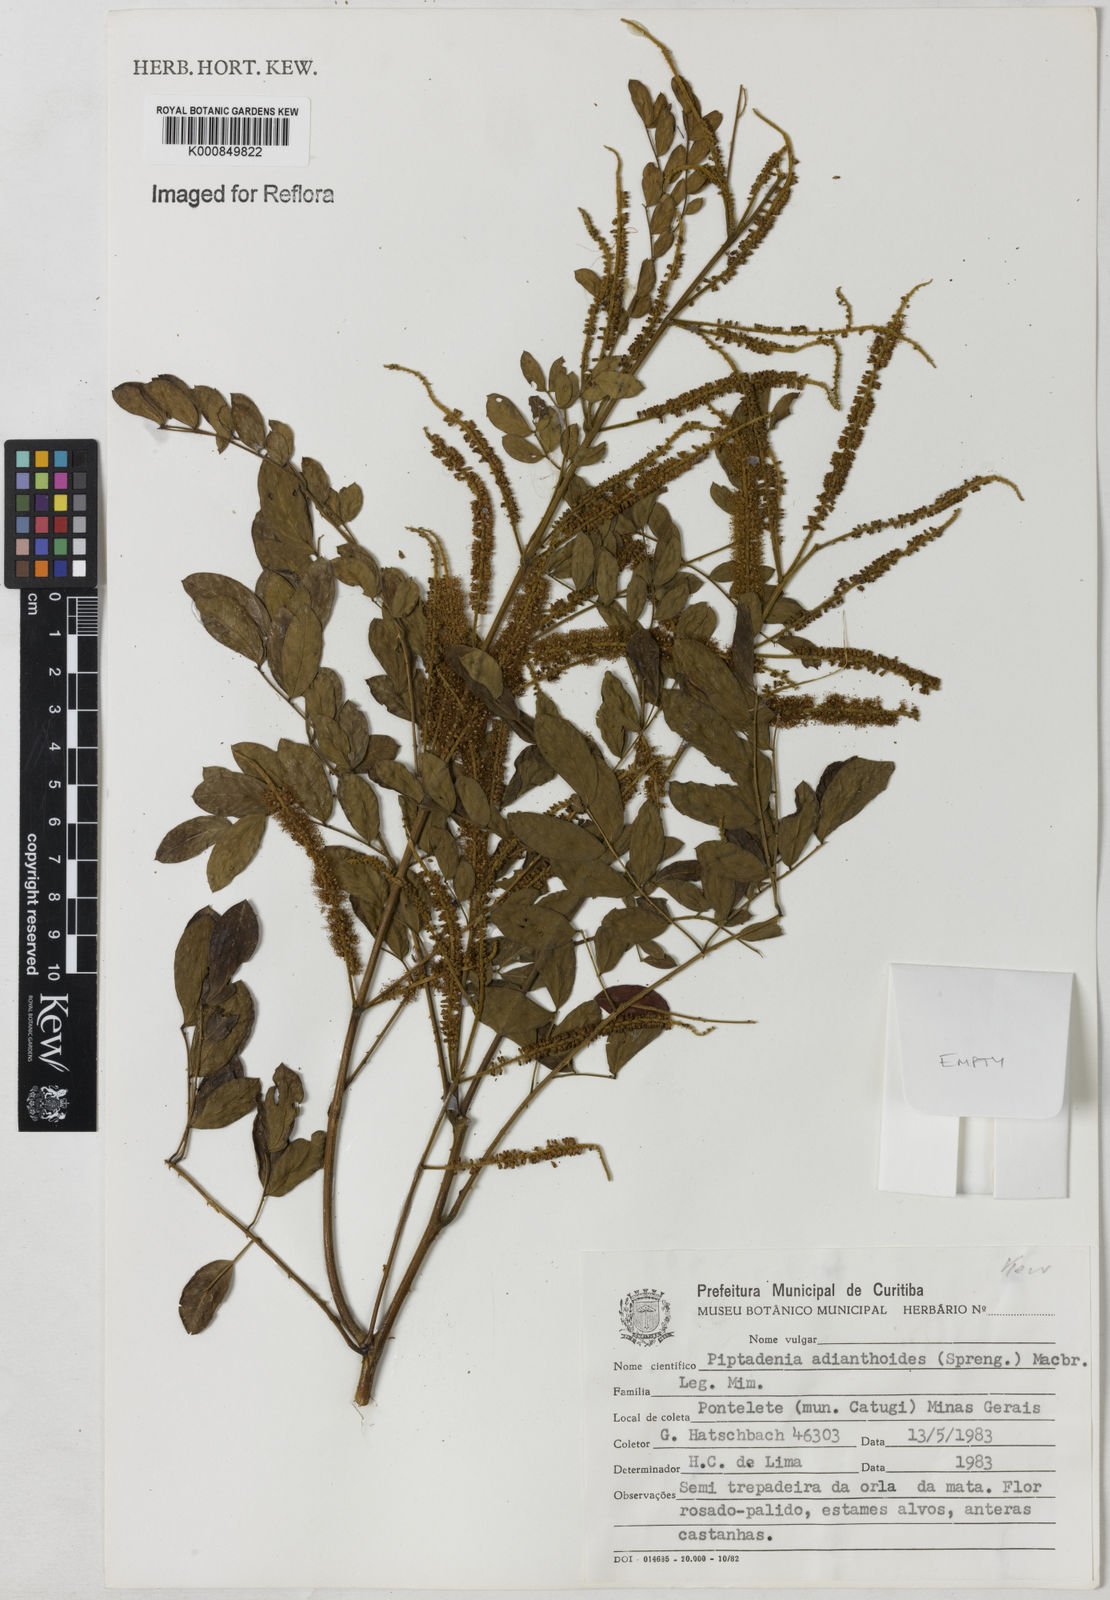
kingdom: Plantae
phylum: Tracheophyta
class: Magnoliopsida
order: Fabales
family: Fabaceae
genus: Piptadenia
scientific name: Piptadenia adiantoides
